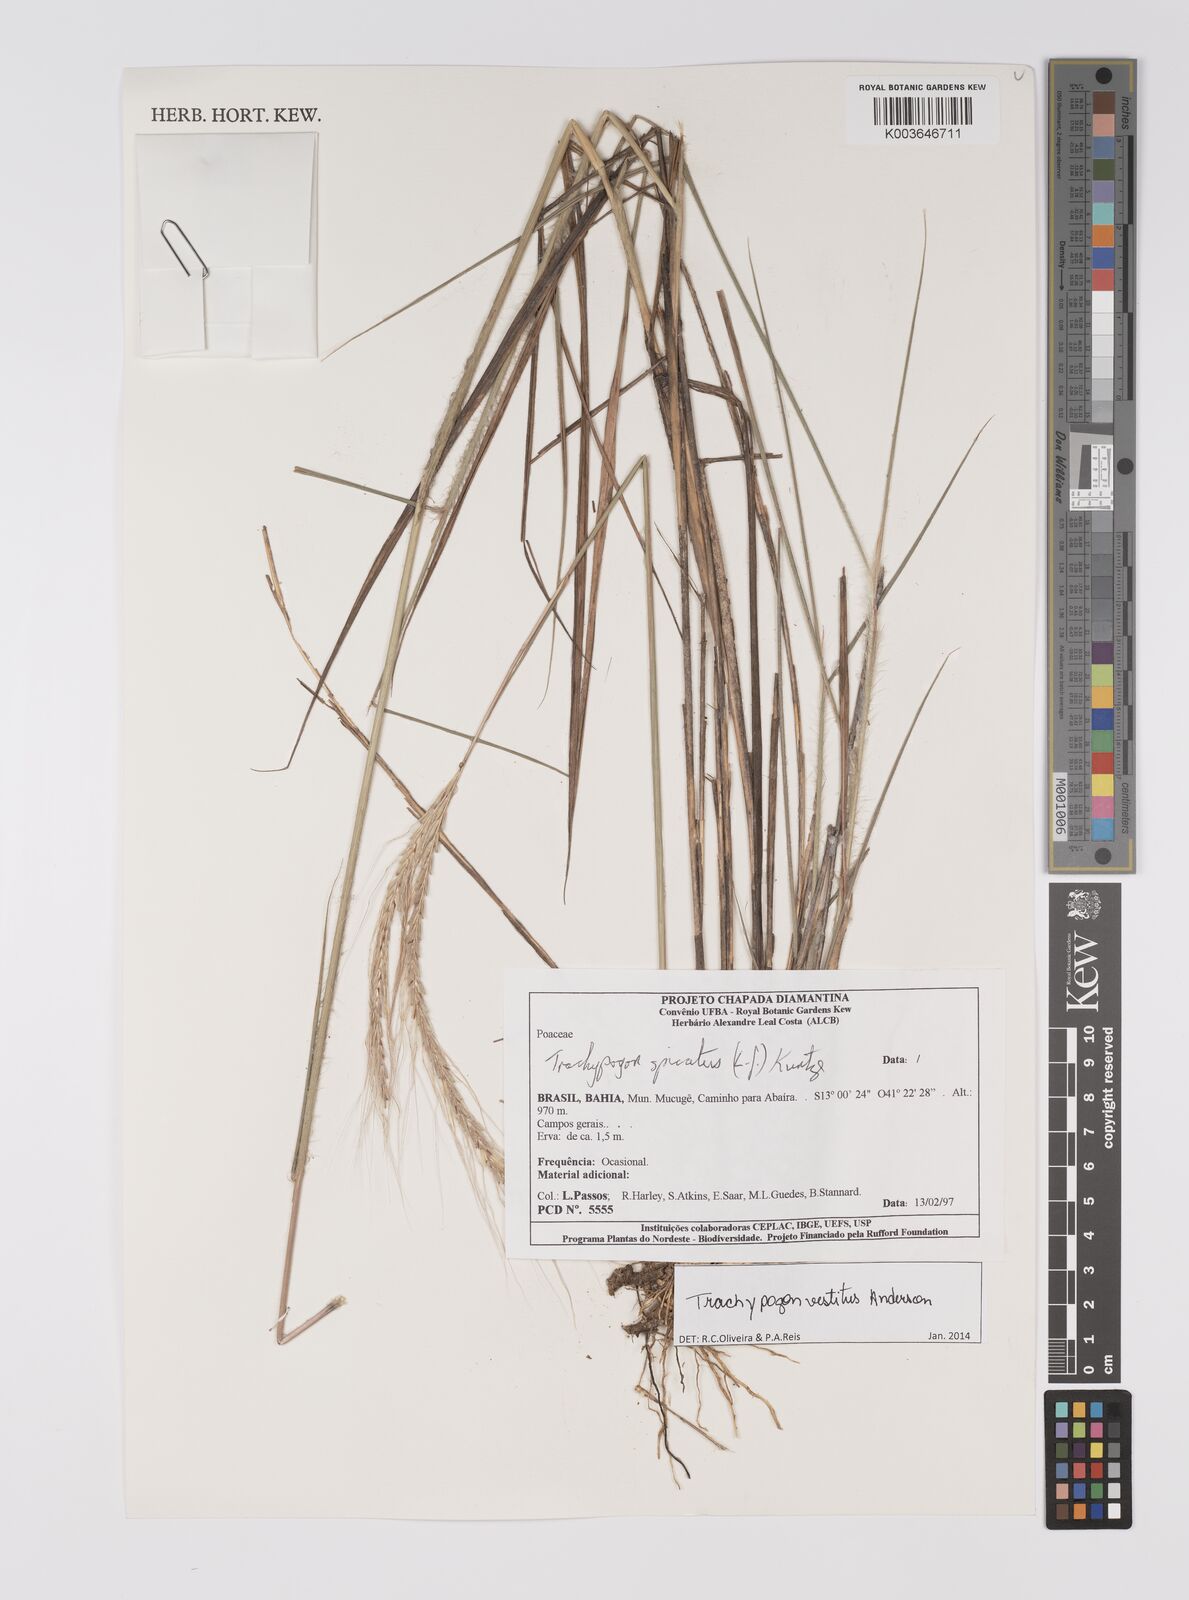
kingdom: Plantae
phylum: Tracheophyta
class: Liliopsida
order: Poales
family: Poaceae
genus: Trachypogon
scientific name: Trachypogon vestitus
